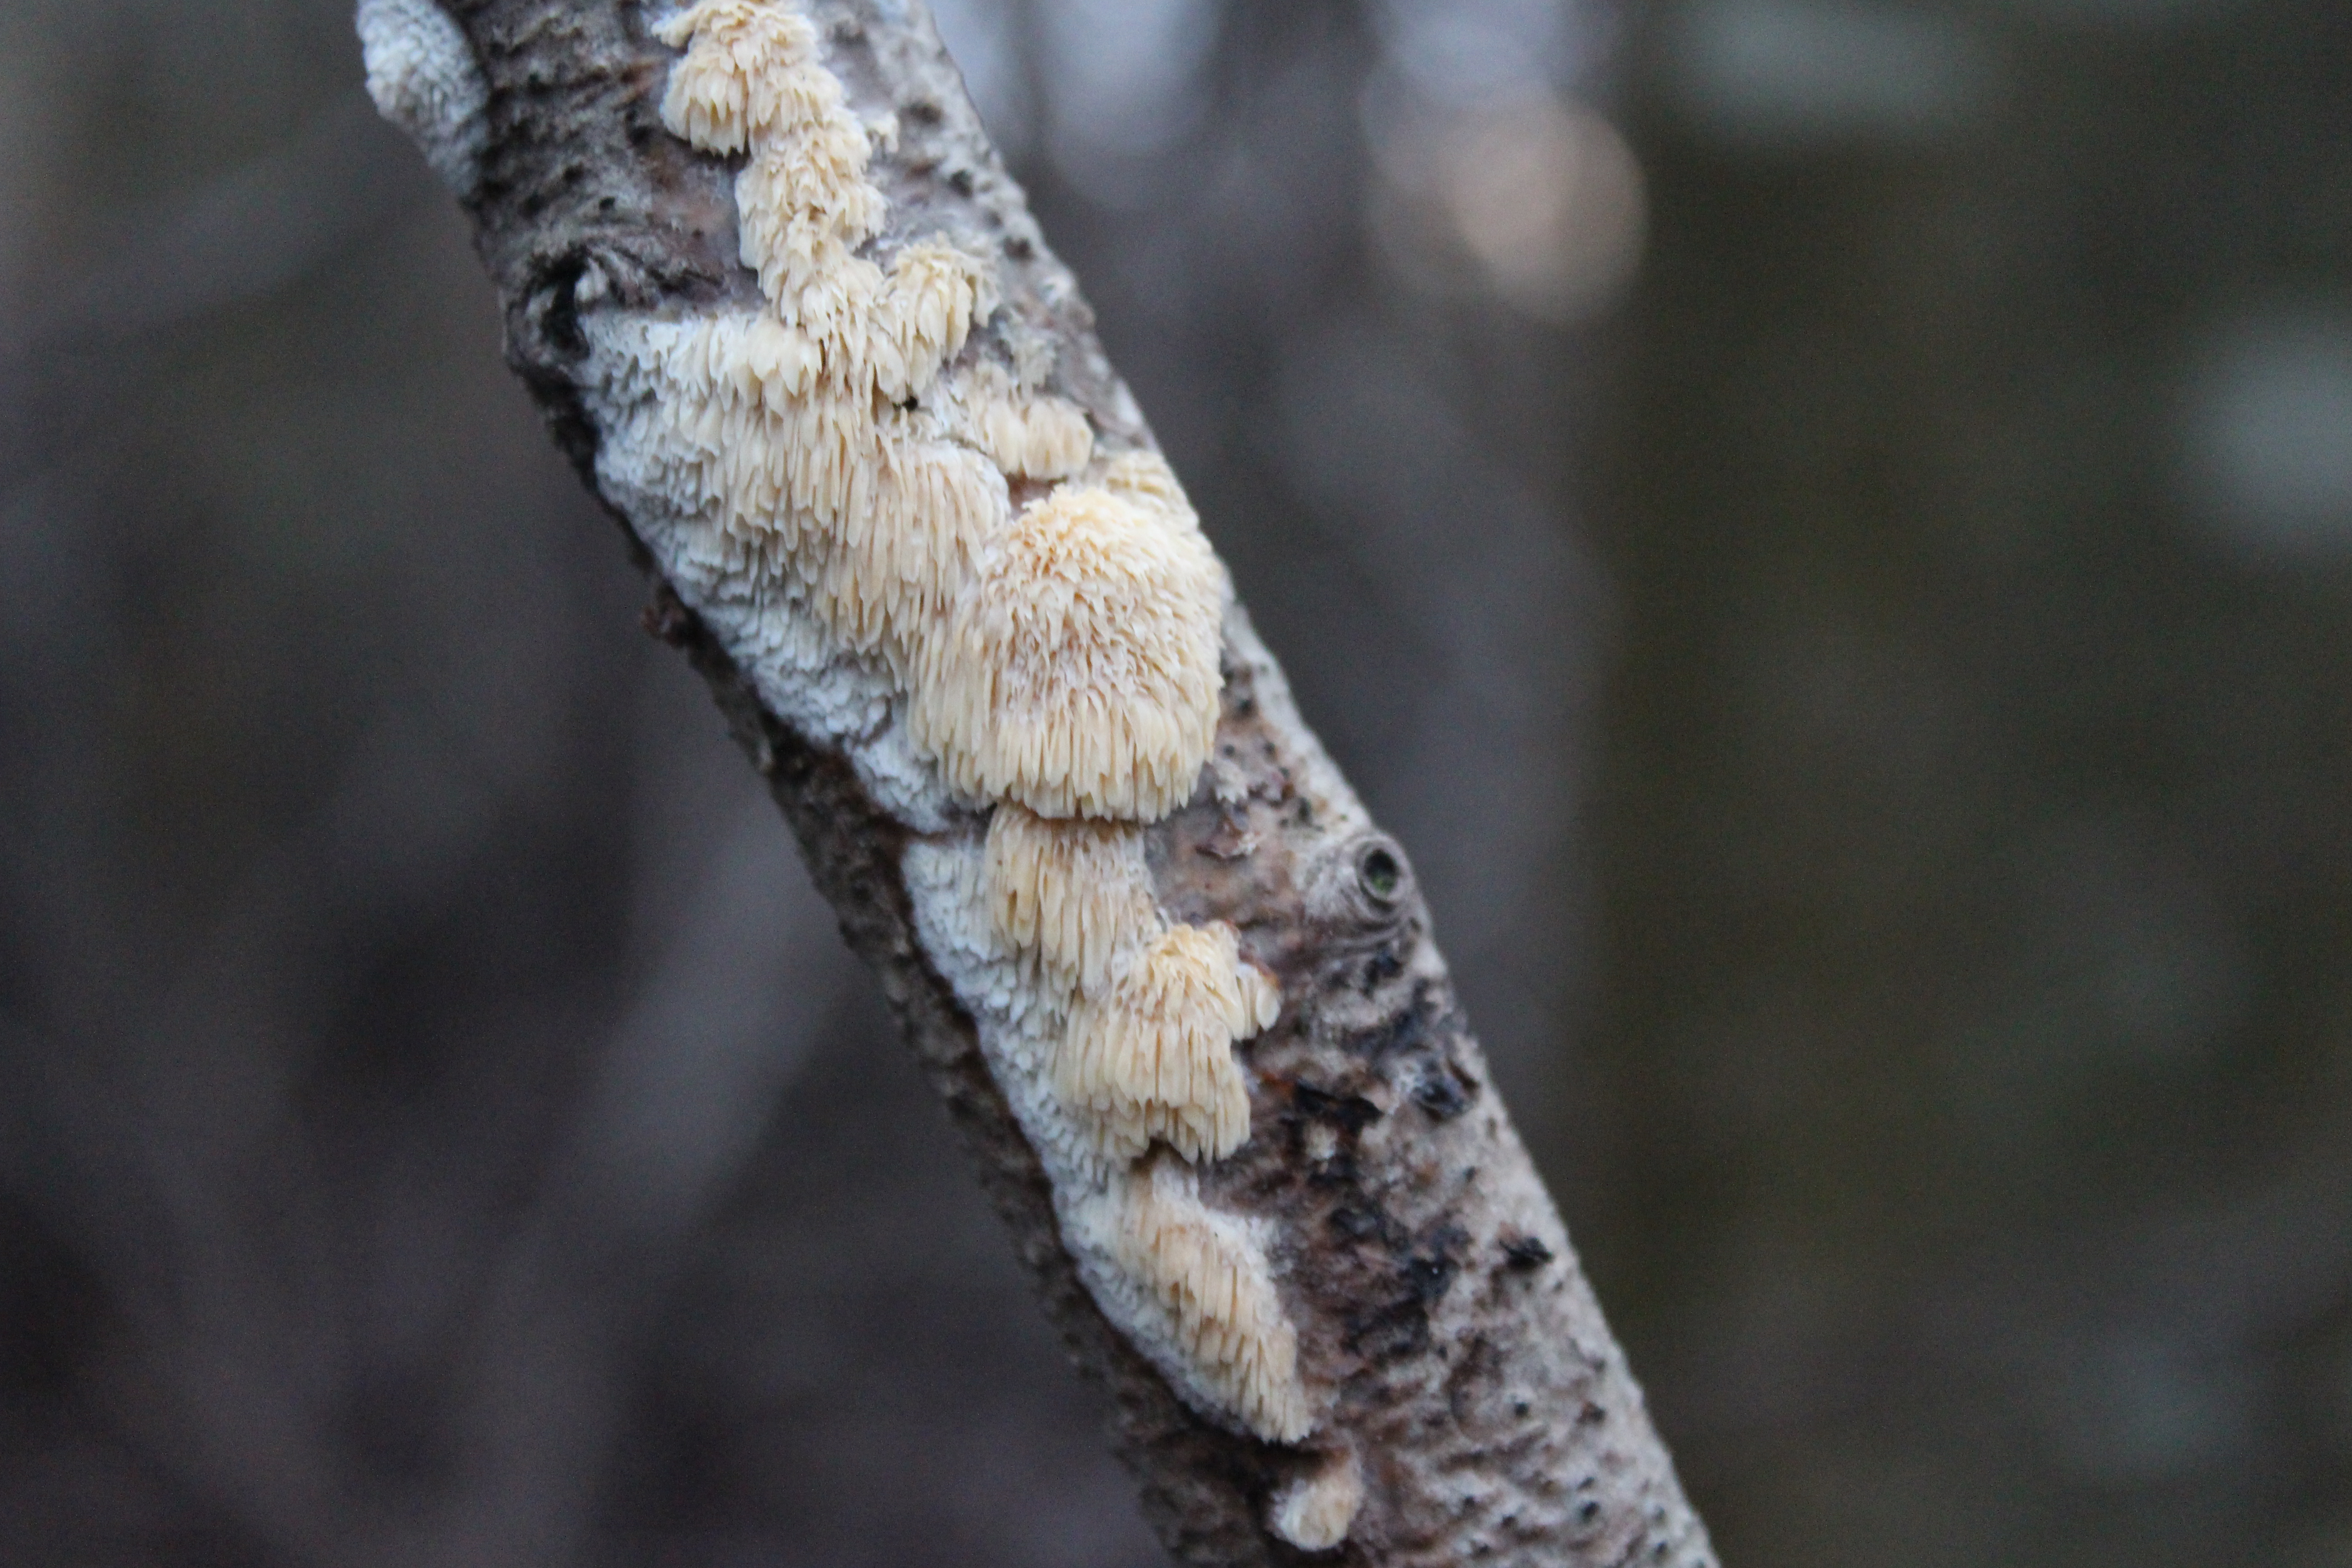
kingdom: Fungi
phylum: Basidiomycota
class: Agaricomycetes
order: Polyporales
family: Steccherinaceae
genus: Niemelaea
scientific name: Niemelaea consobrina
